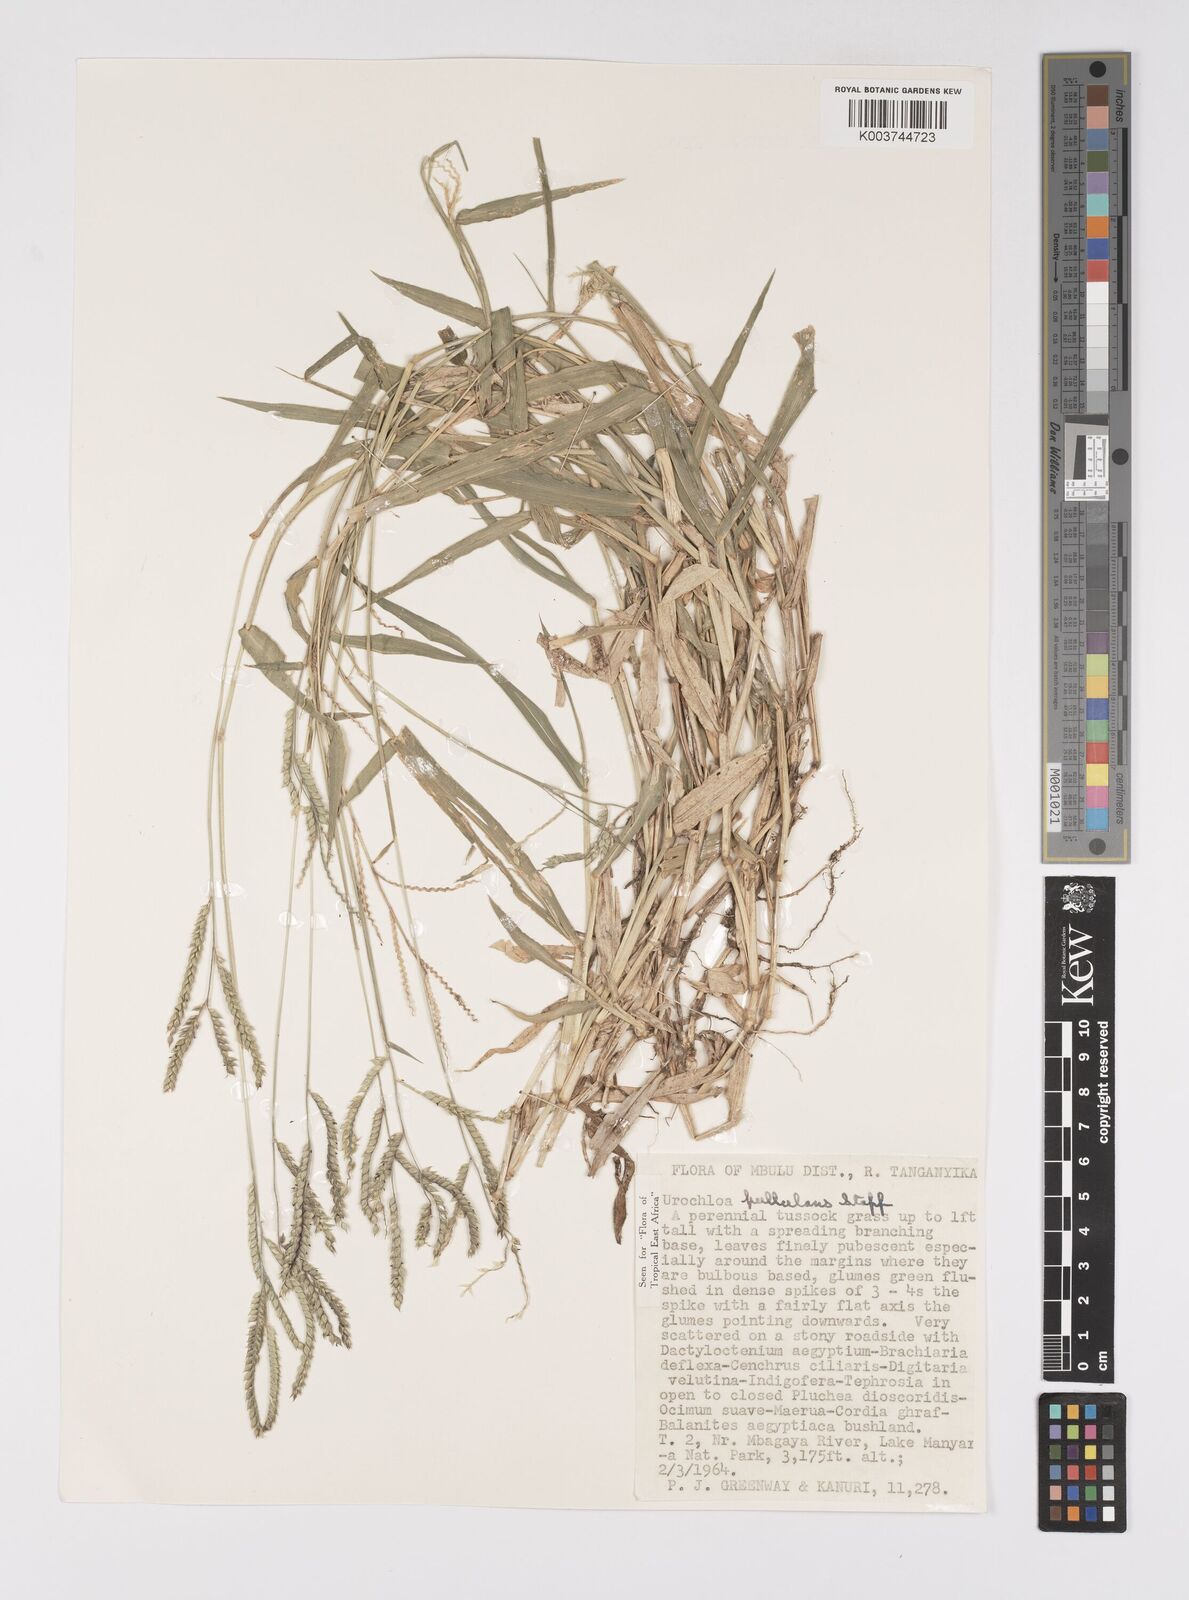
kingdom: Plantae
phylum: Tracheophyta
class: Liliopsida
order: Poales
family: Poaceae
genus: Urochloa
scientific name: Urochloa trichopus
